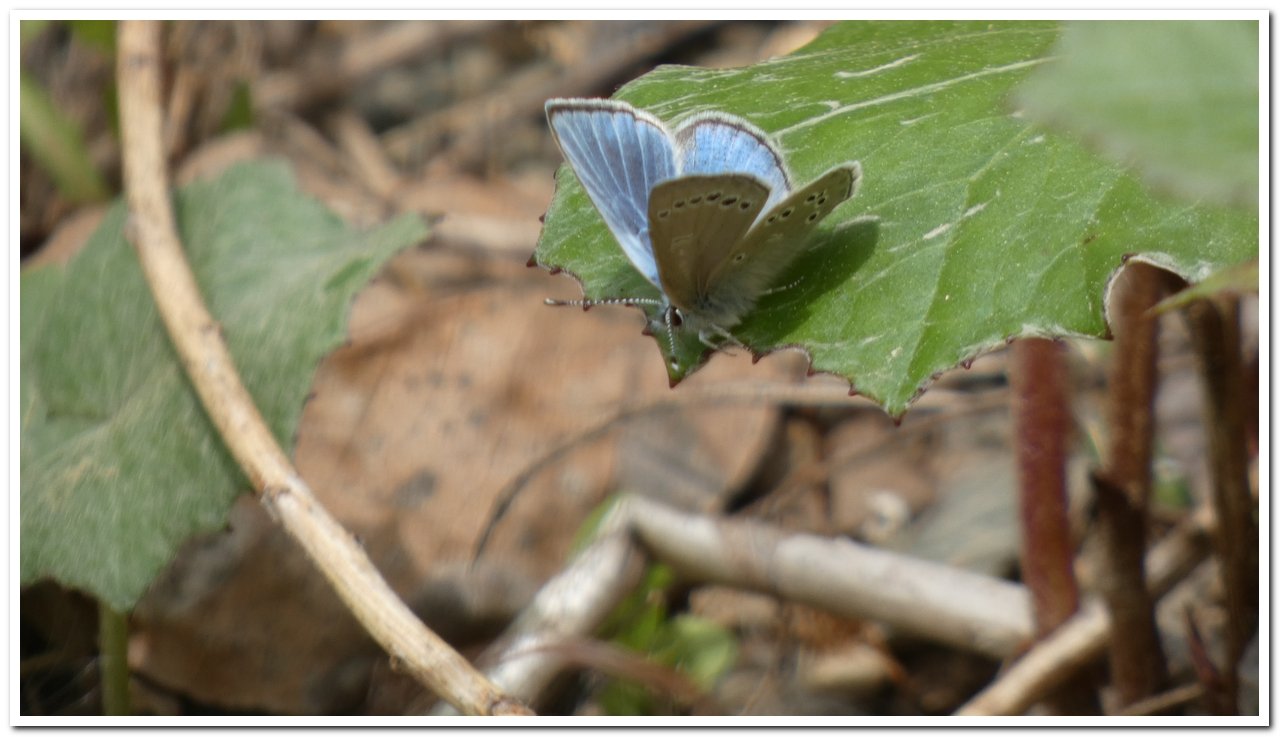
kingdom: Animalia
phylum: Arthropoda
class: Insecta
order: Lepidoptera
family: Lycaenidae
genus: Glaucopsyche
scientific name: Glaucopsyche lygdamus
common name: Silvery Blue
